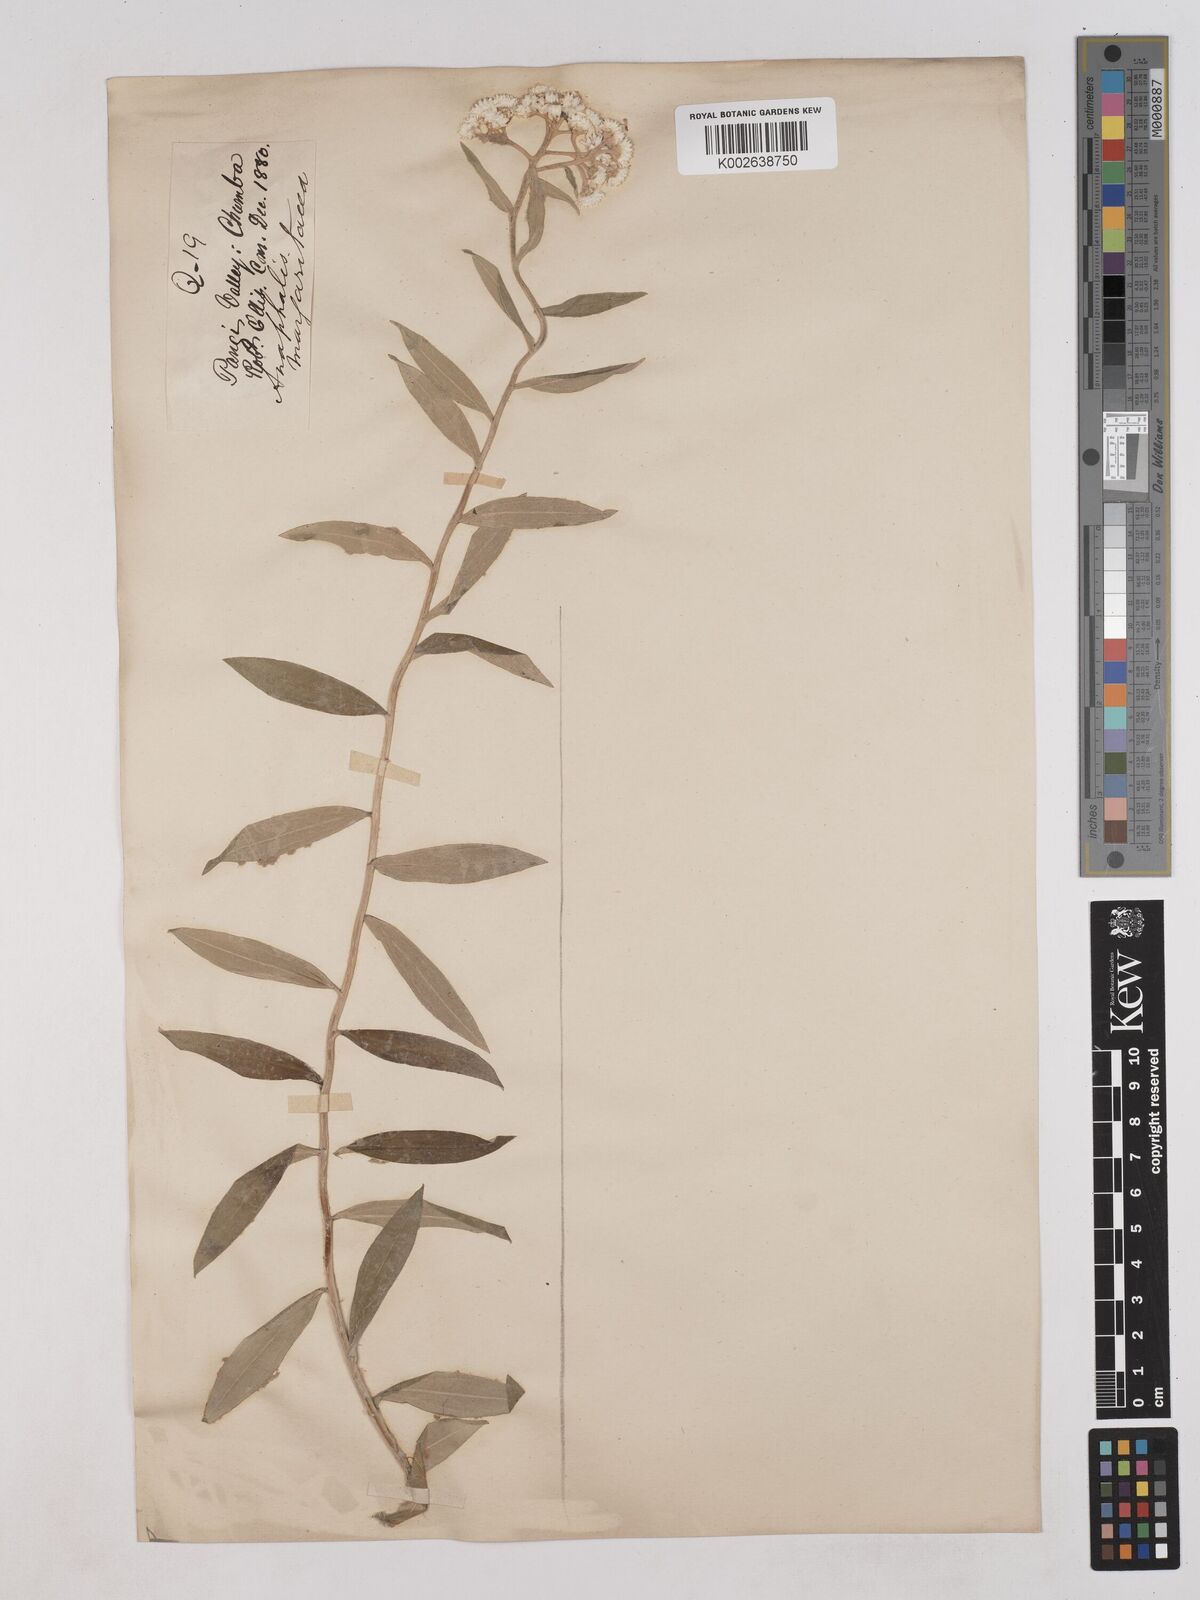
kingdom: Plantae
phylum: Tracheophyta
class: Magnoliopsida
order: Asterales
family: Asteraceae
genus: Anaphalis
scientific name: Anaphalis marcescens
